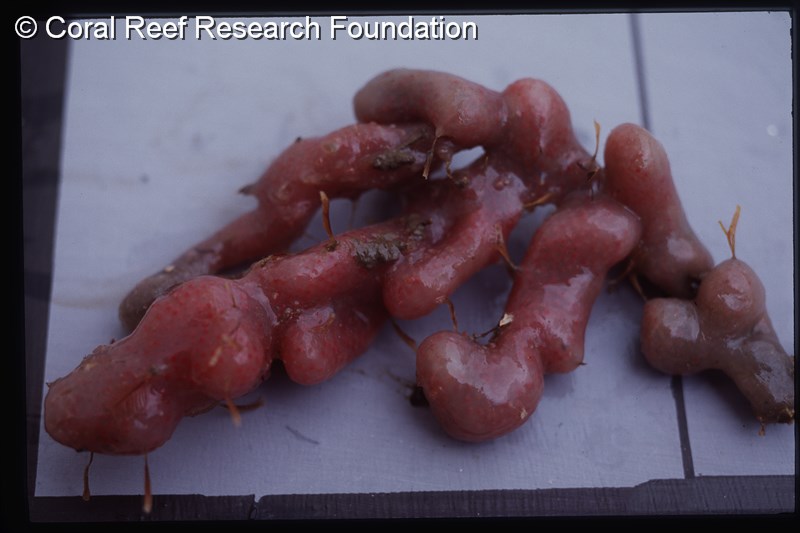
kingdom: Animalia
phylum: Chordata
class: Ascidiacea
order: Aplousobranchia
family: Polycitoridae
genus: Eudistoma
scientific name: Eudistoma illotum
